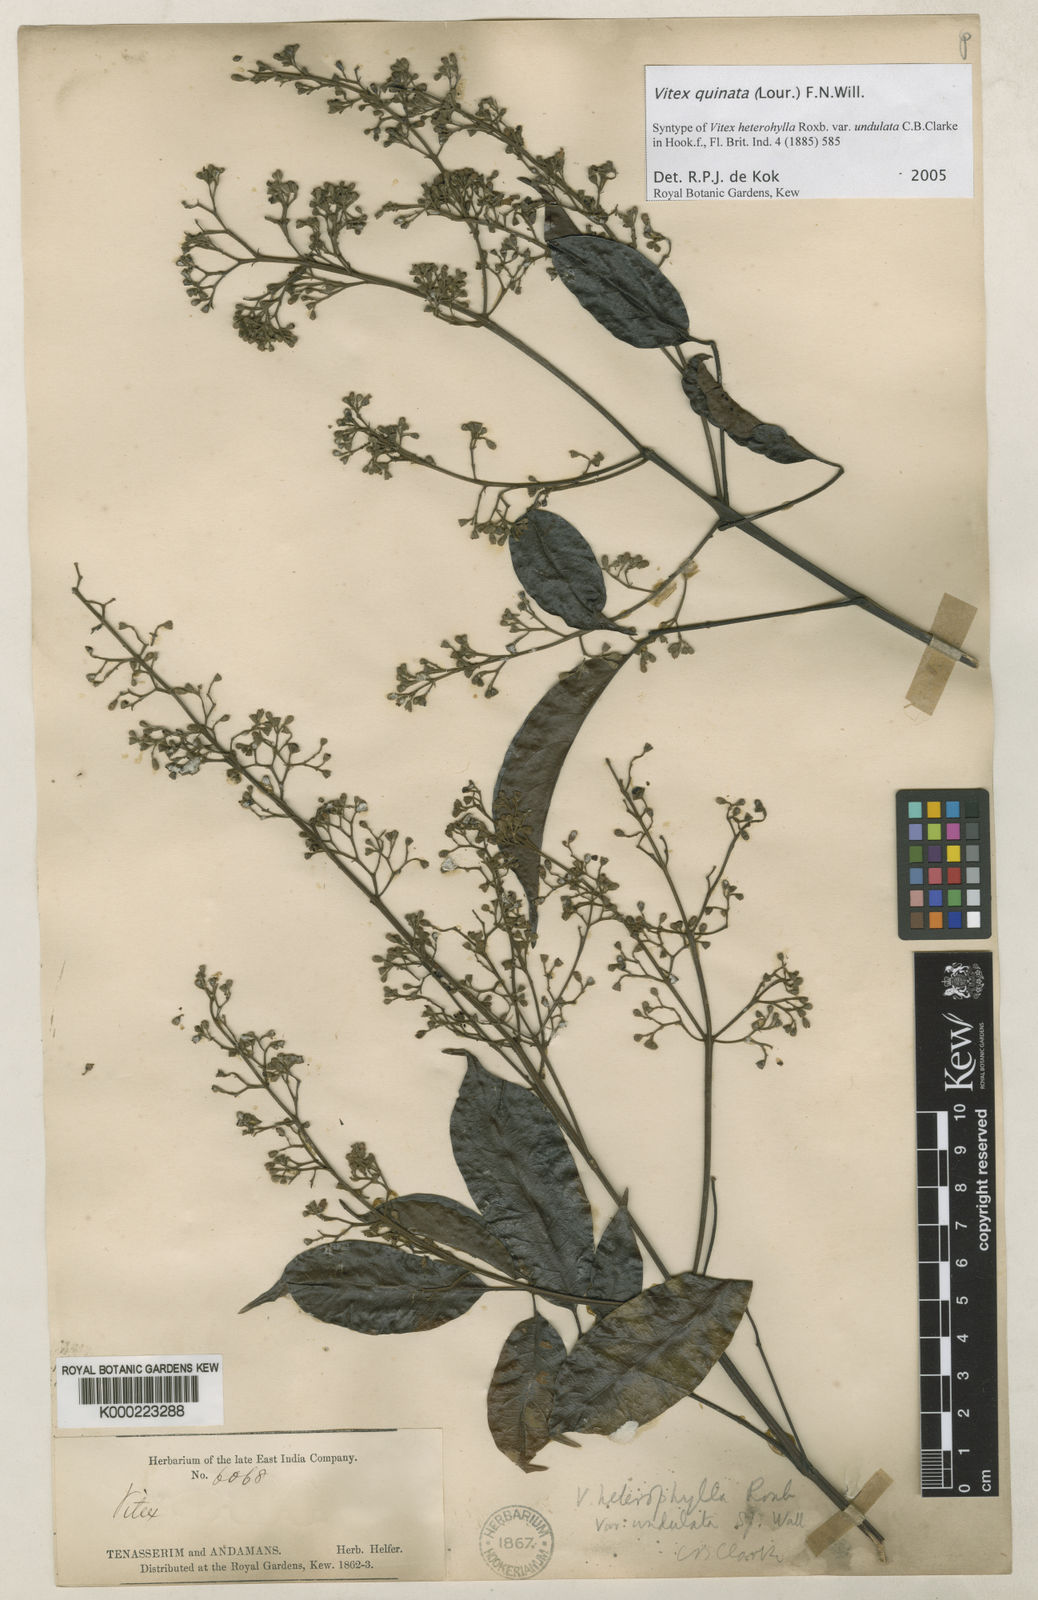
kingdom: Plantae
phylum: Tracheophyta
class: Magnoliopsida
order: Lamiales
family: Lamiaceae
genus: Vitex
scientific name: Vitex quinata
